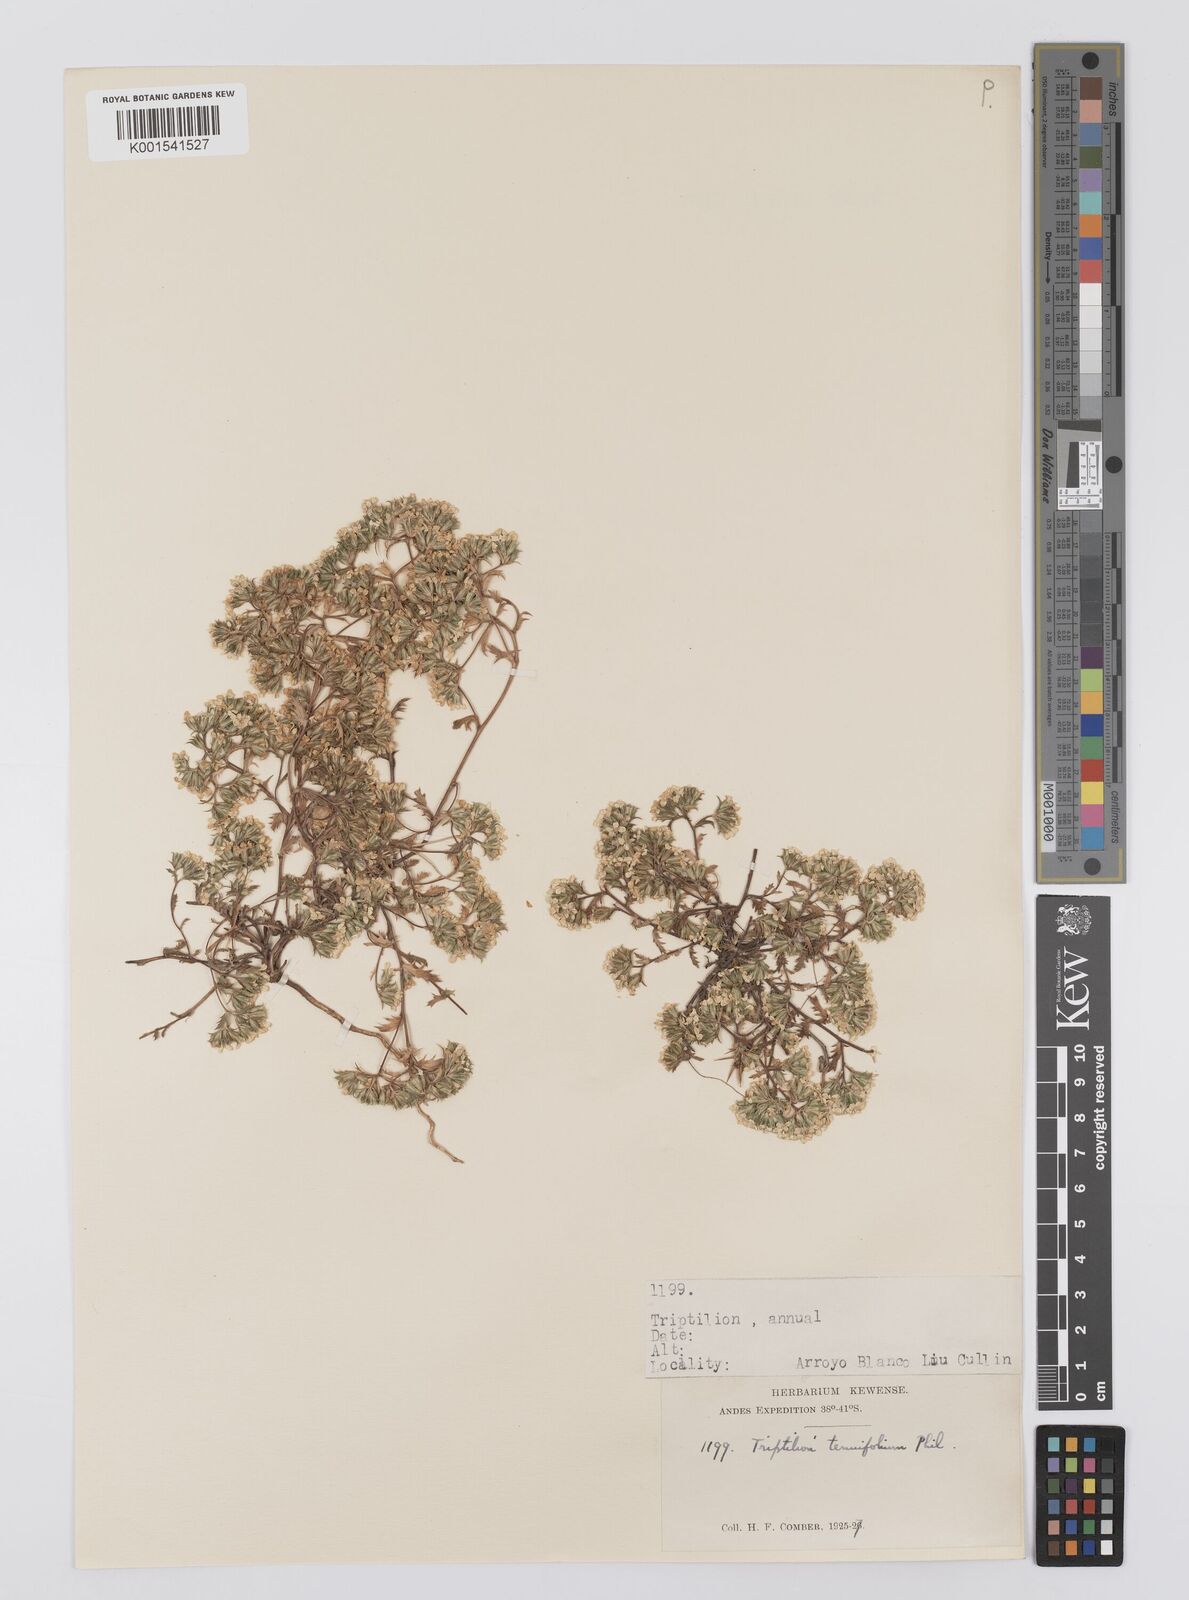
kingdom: Plantae
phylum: Tracheophyta
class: Magnoliopsida
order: Asterales
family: Asteraceae
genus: Triptilion
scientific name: Triptilion achilleae
